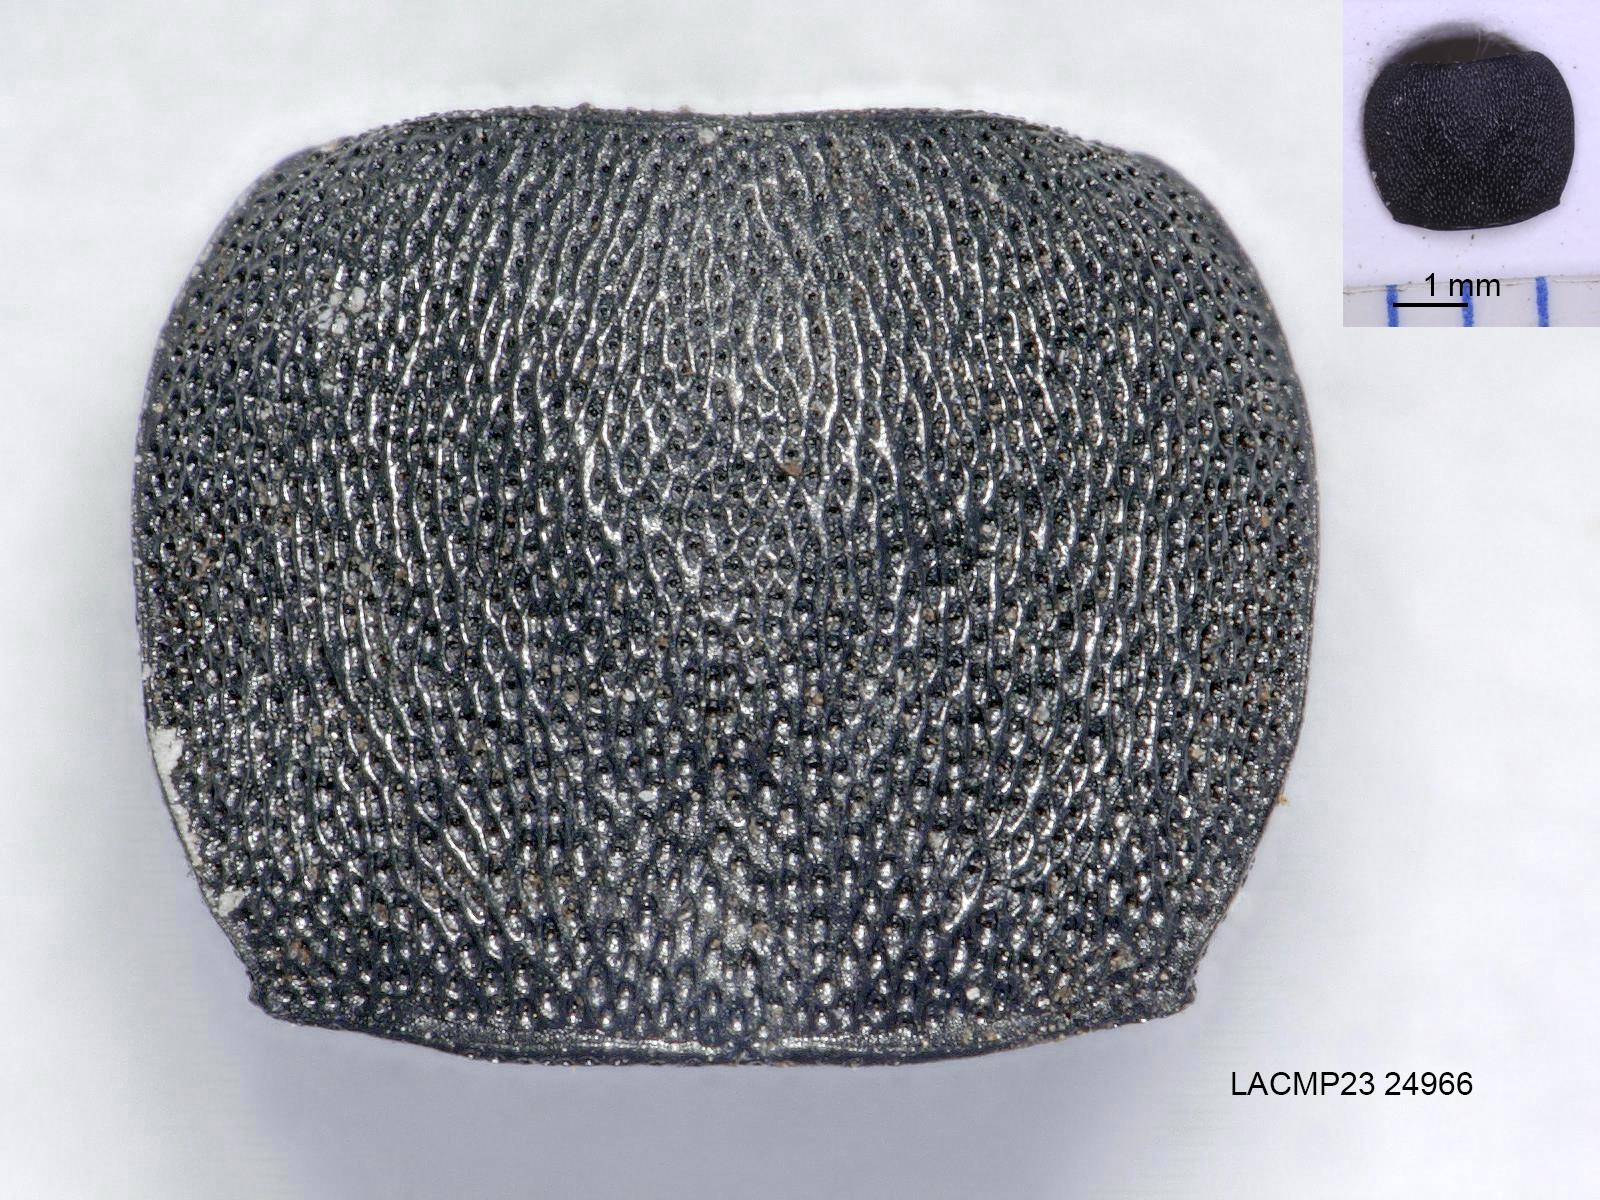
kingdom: Animalia
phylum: Arthropoda
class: Insecta
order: Coleoptera
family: Carabidae
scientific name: Carabidae
